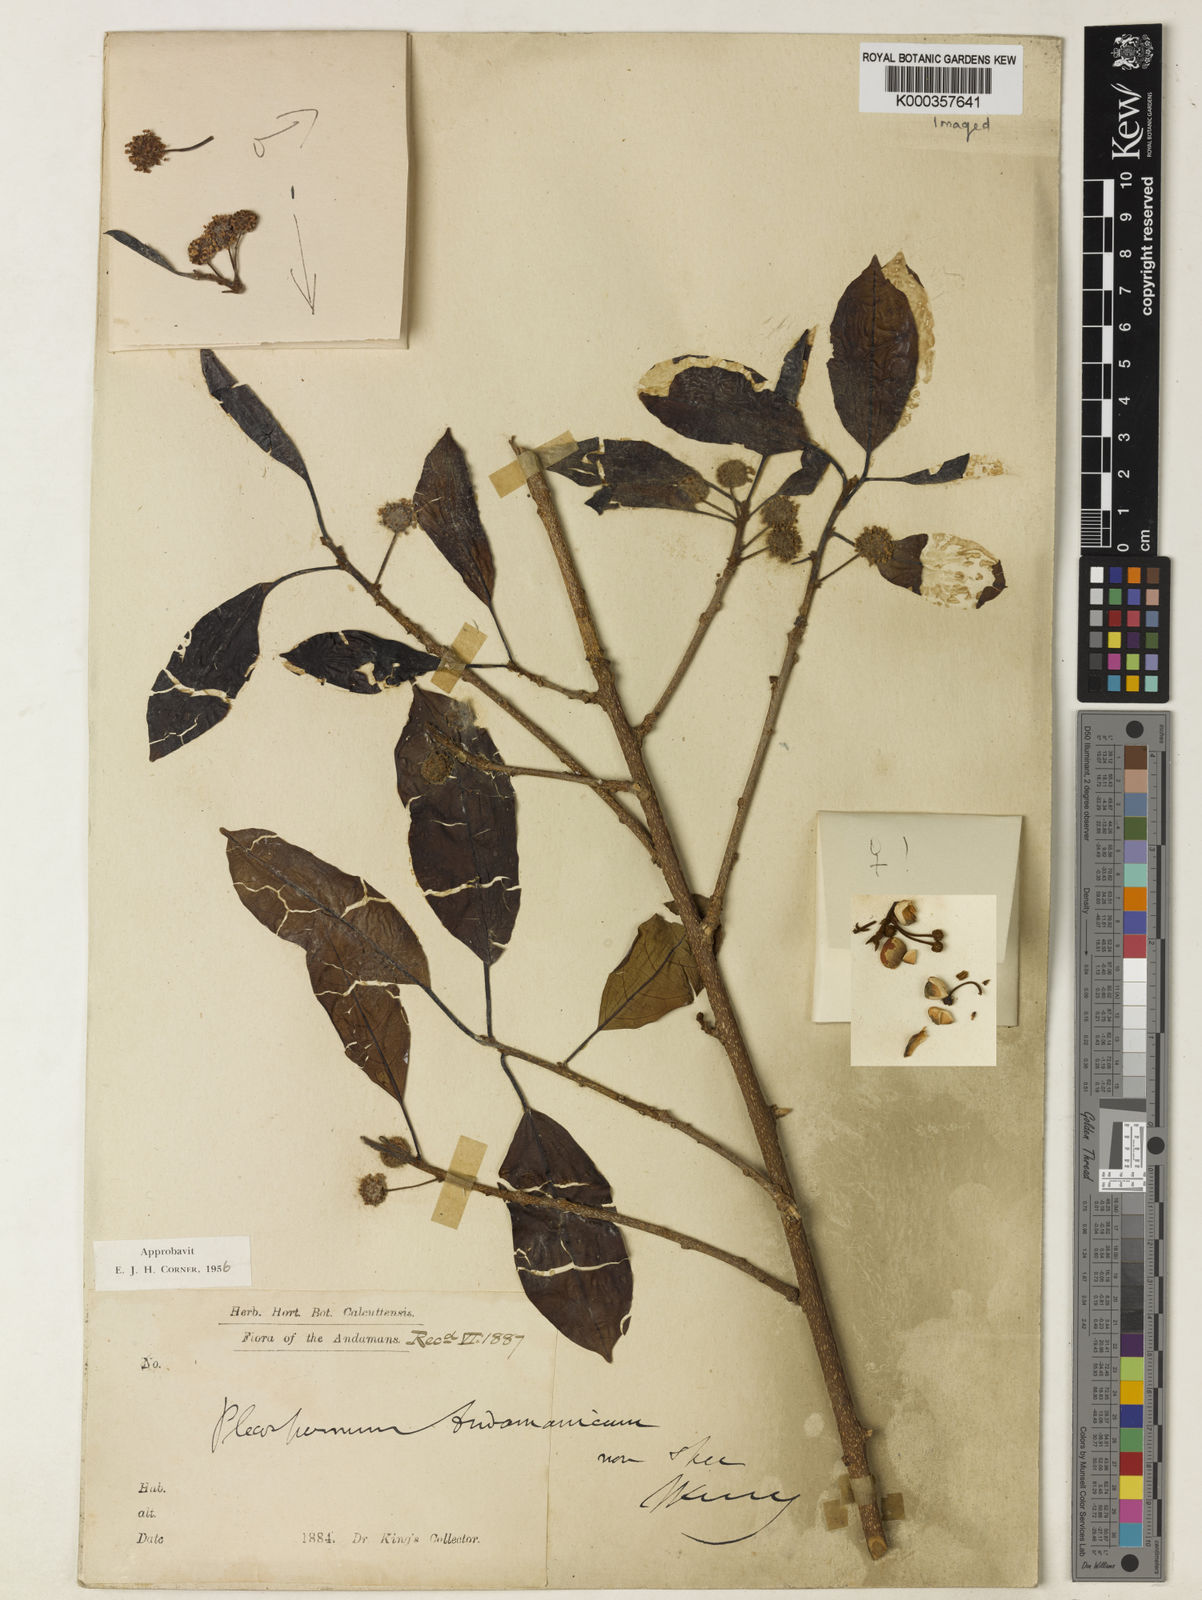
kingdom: Plantae
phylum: Tracheophyta
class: Magnoliopsida
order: Rosales
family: Moraceae
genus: Maclura
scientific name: Maclura andamanica
